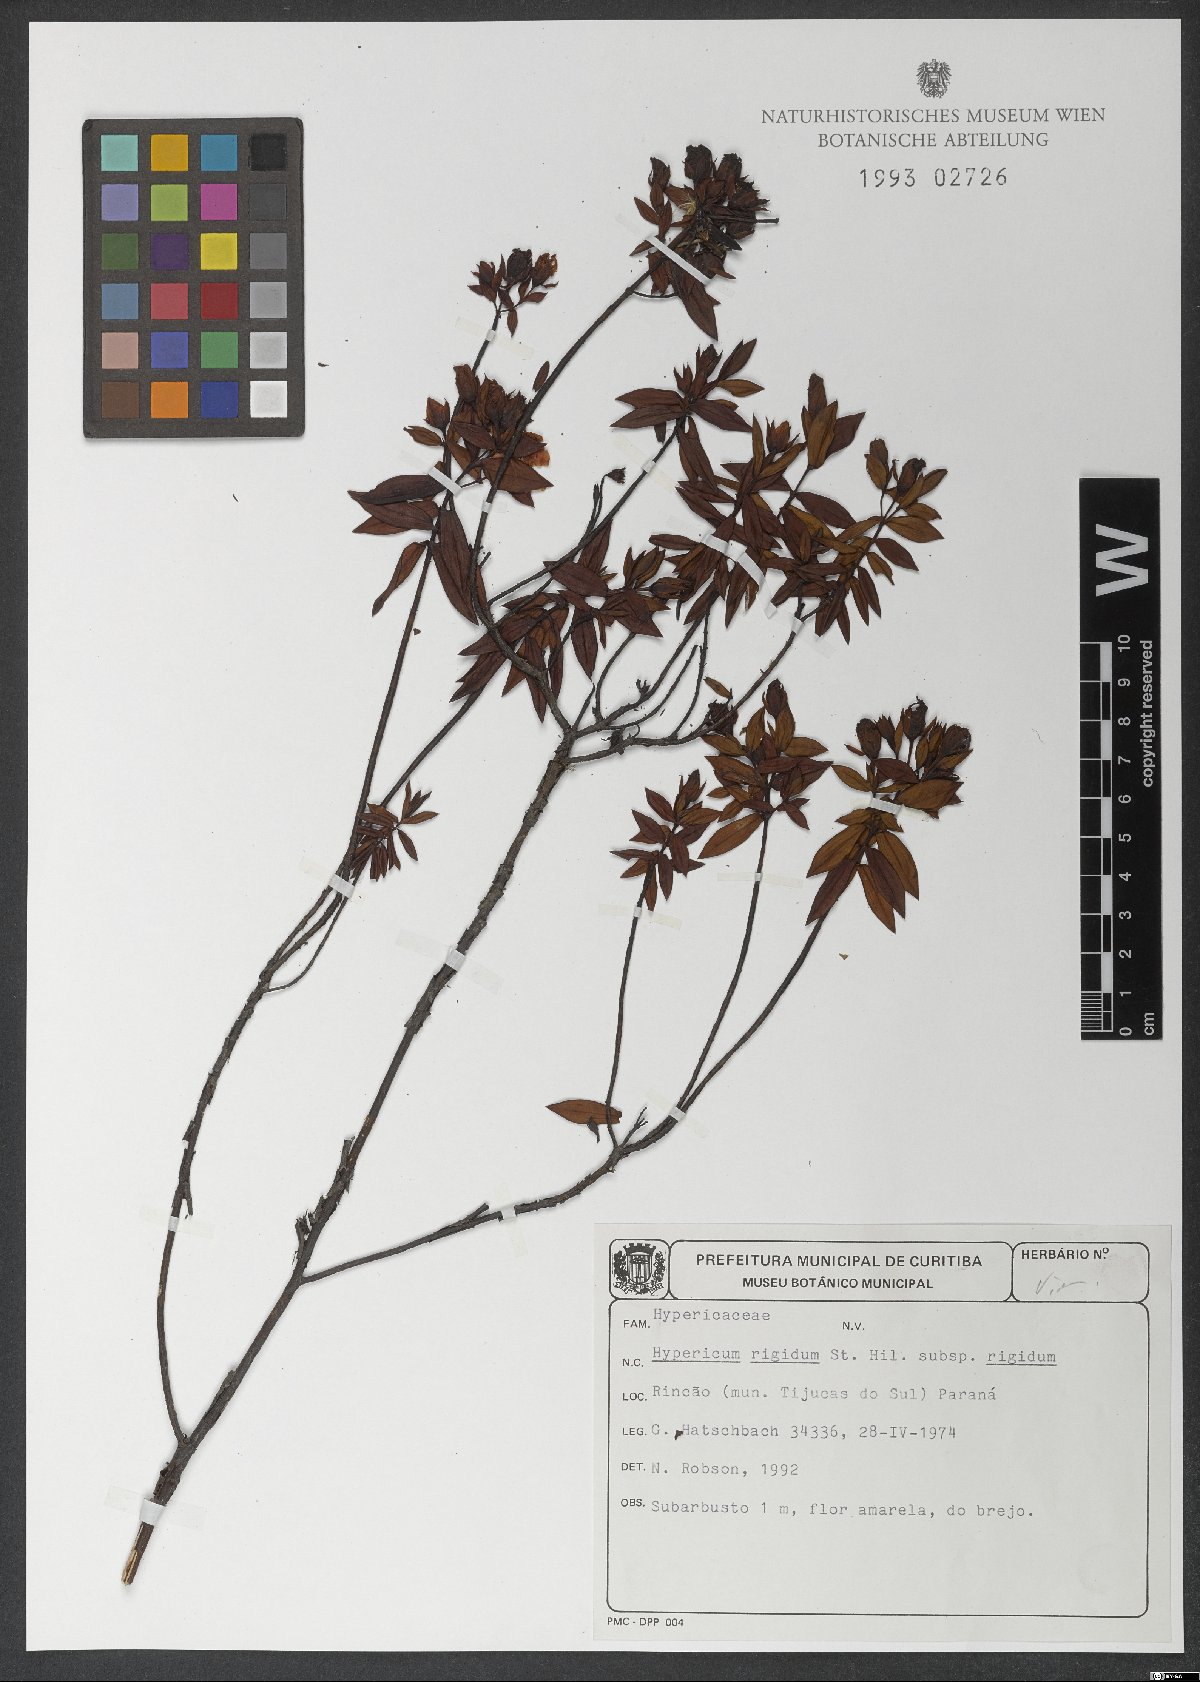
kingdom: Plantae
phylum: Tracheophyta
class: Magnoliopsida
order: Malpighiales
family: Hypericaceae
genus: Hypericum
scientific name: Hypericum rigidum
